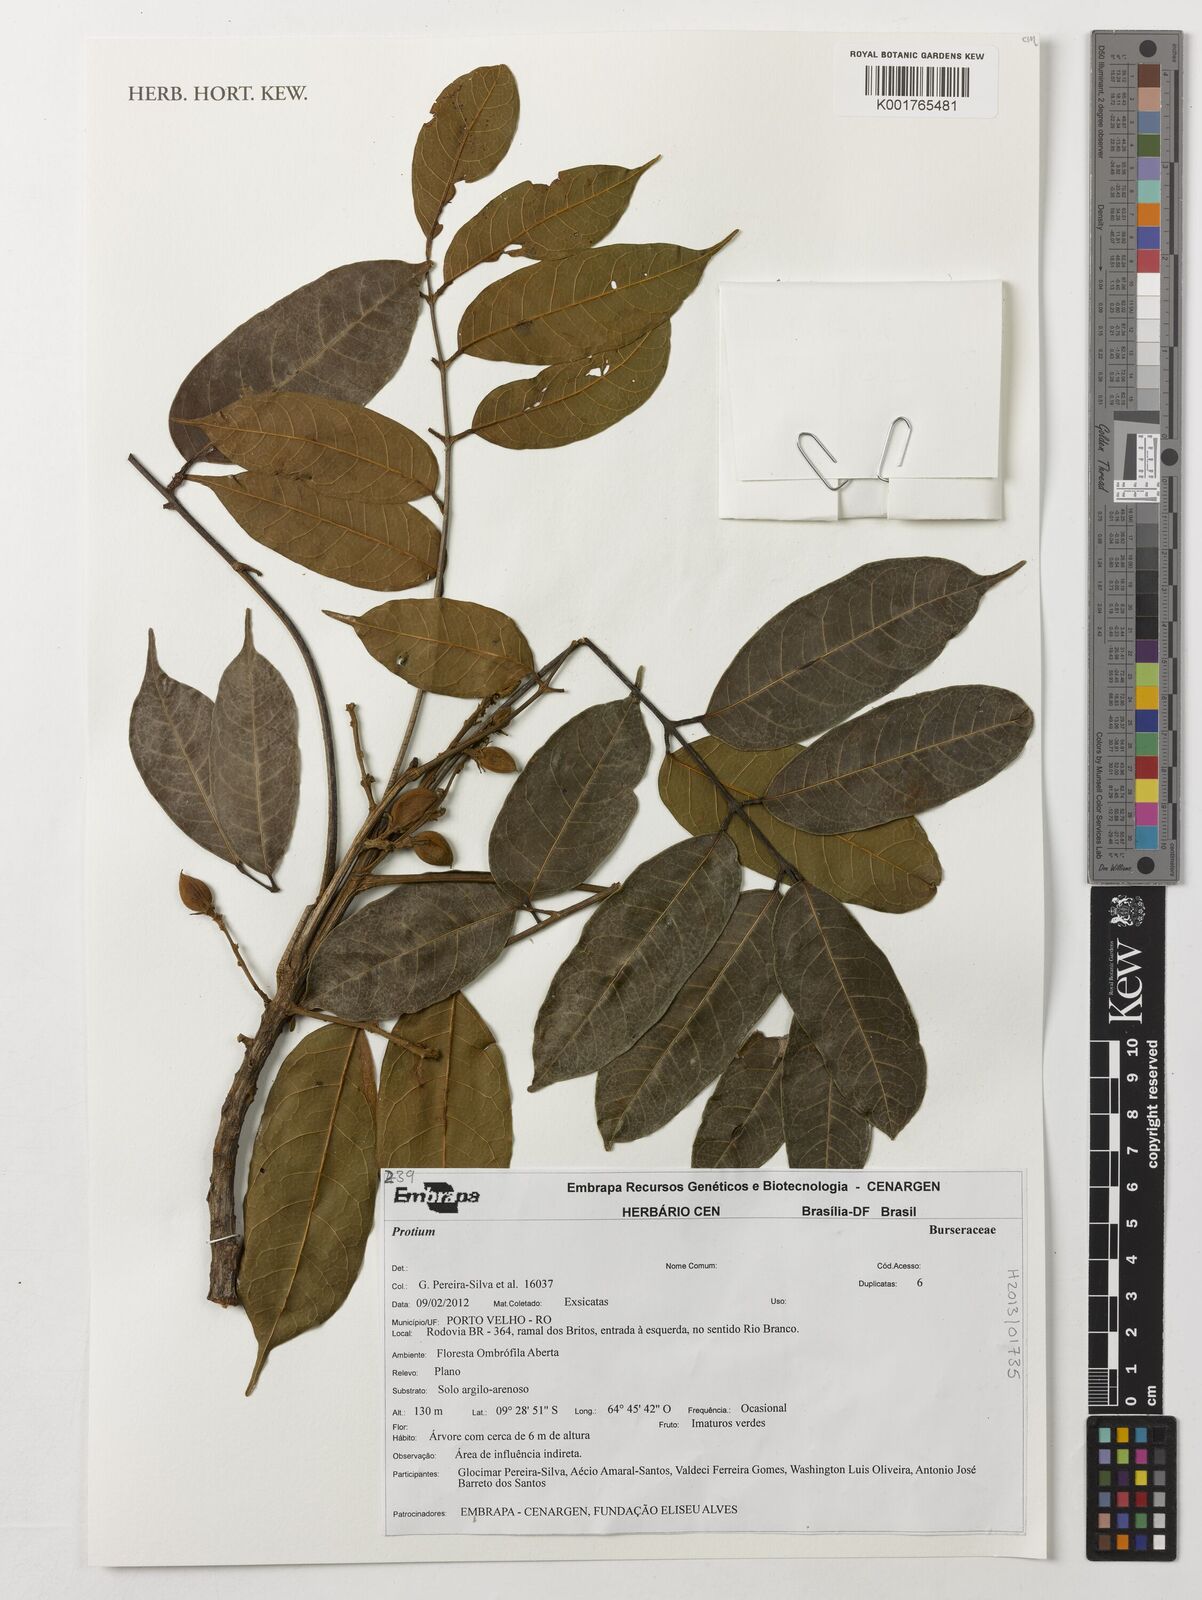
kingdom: Plantae
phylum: Tracheophyta
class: Magnoliopsida
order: Sapindales
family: Burseraceae
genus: Protium
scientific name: Protium
